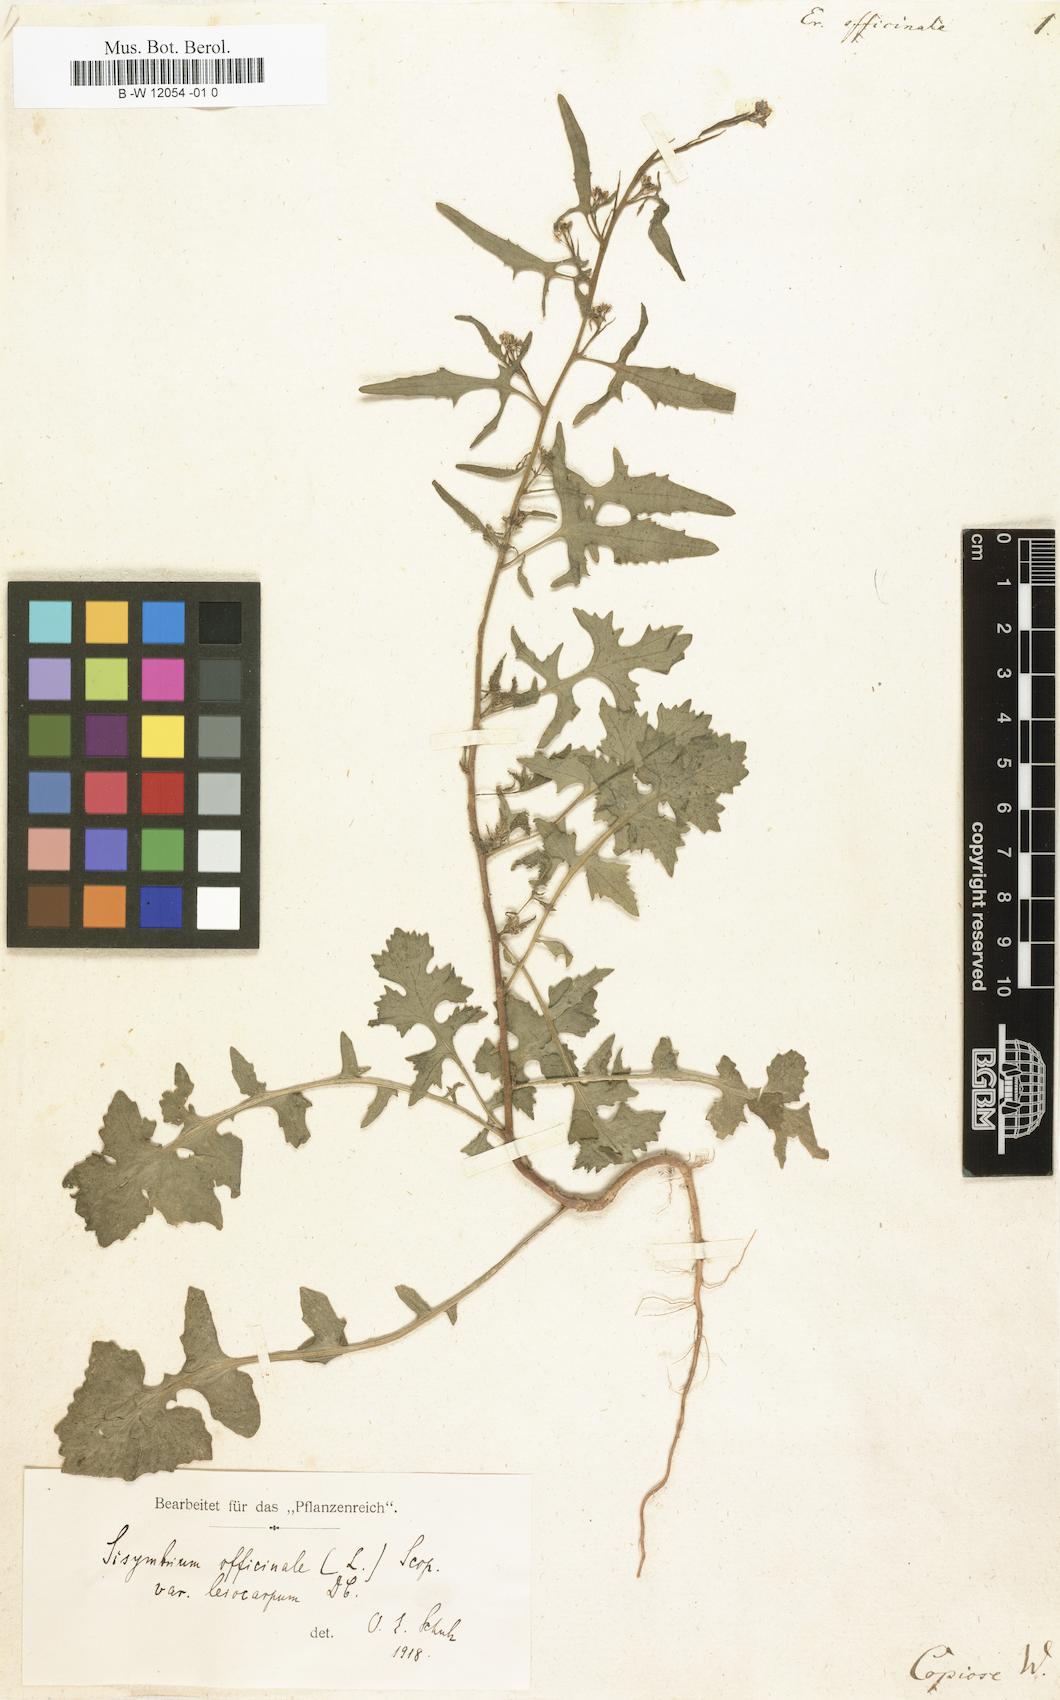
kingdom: Plantae
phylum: Tracheophyta
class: Magnoliopsida
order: Brassicales
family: Brassicaceae
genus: Sisymbrium
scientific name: Sisymbrium officinale
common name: Hedge mustard
